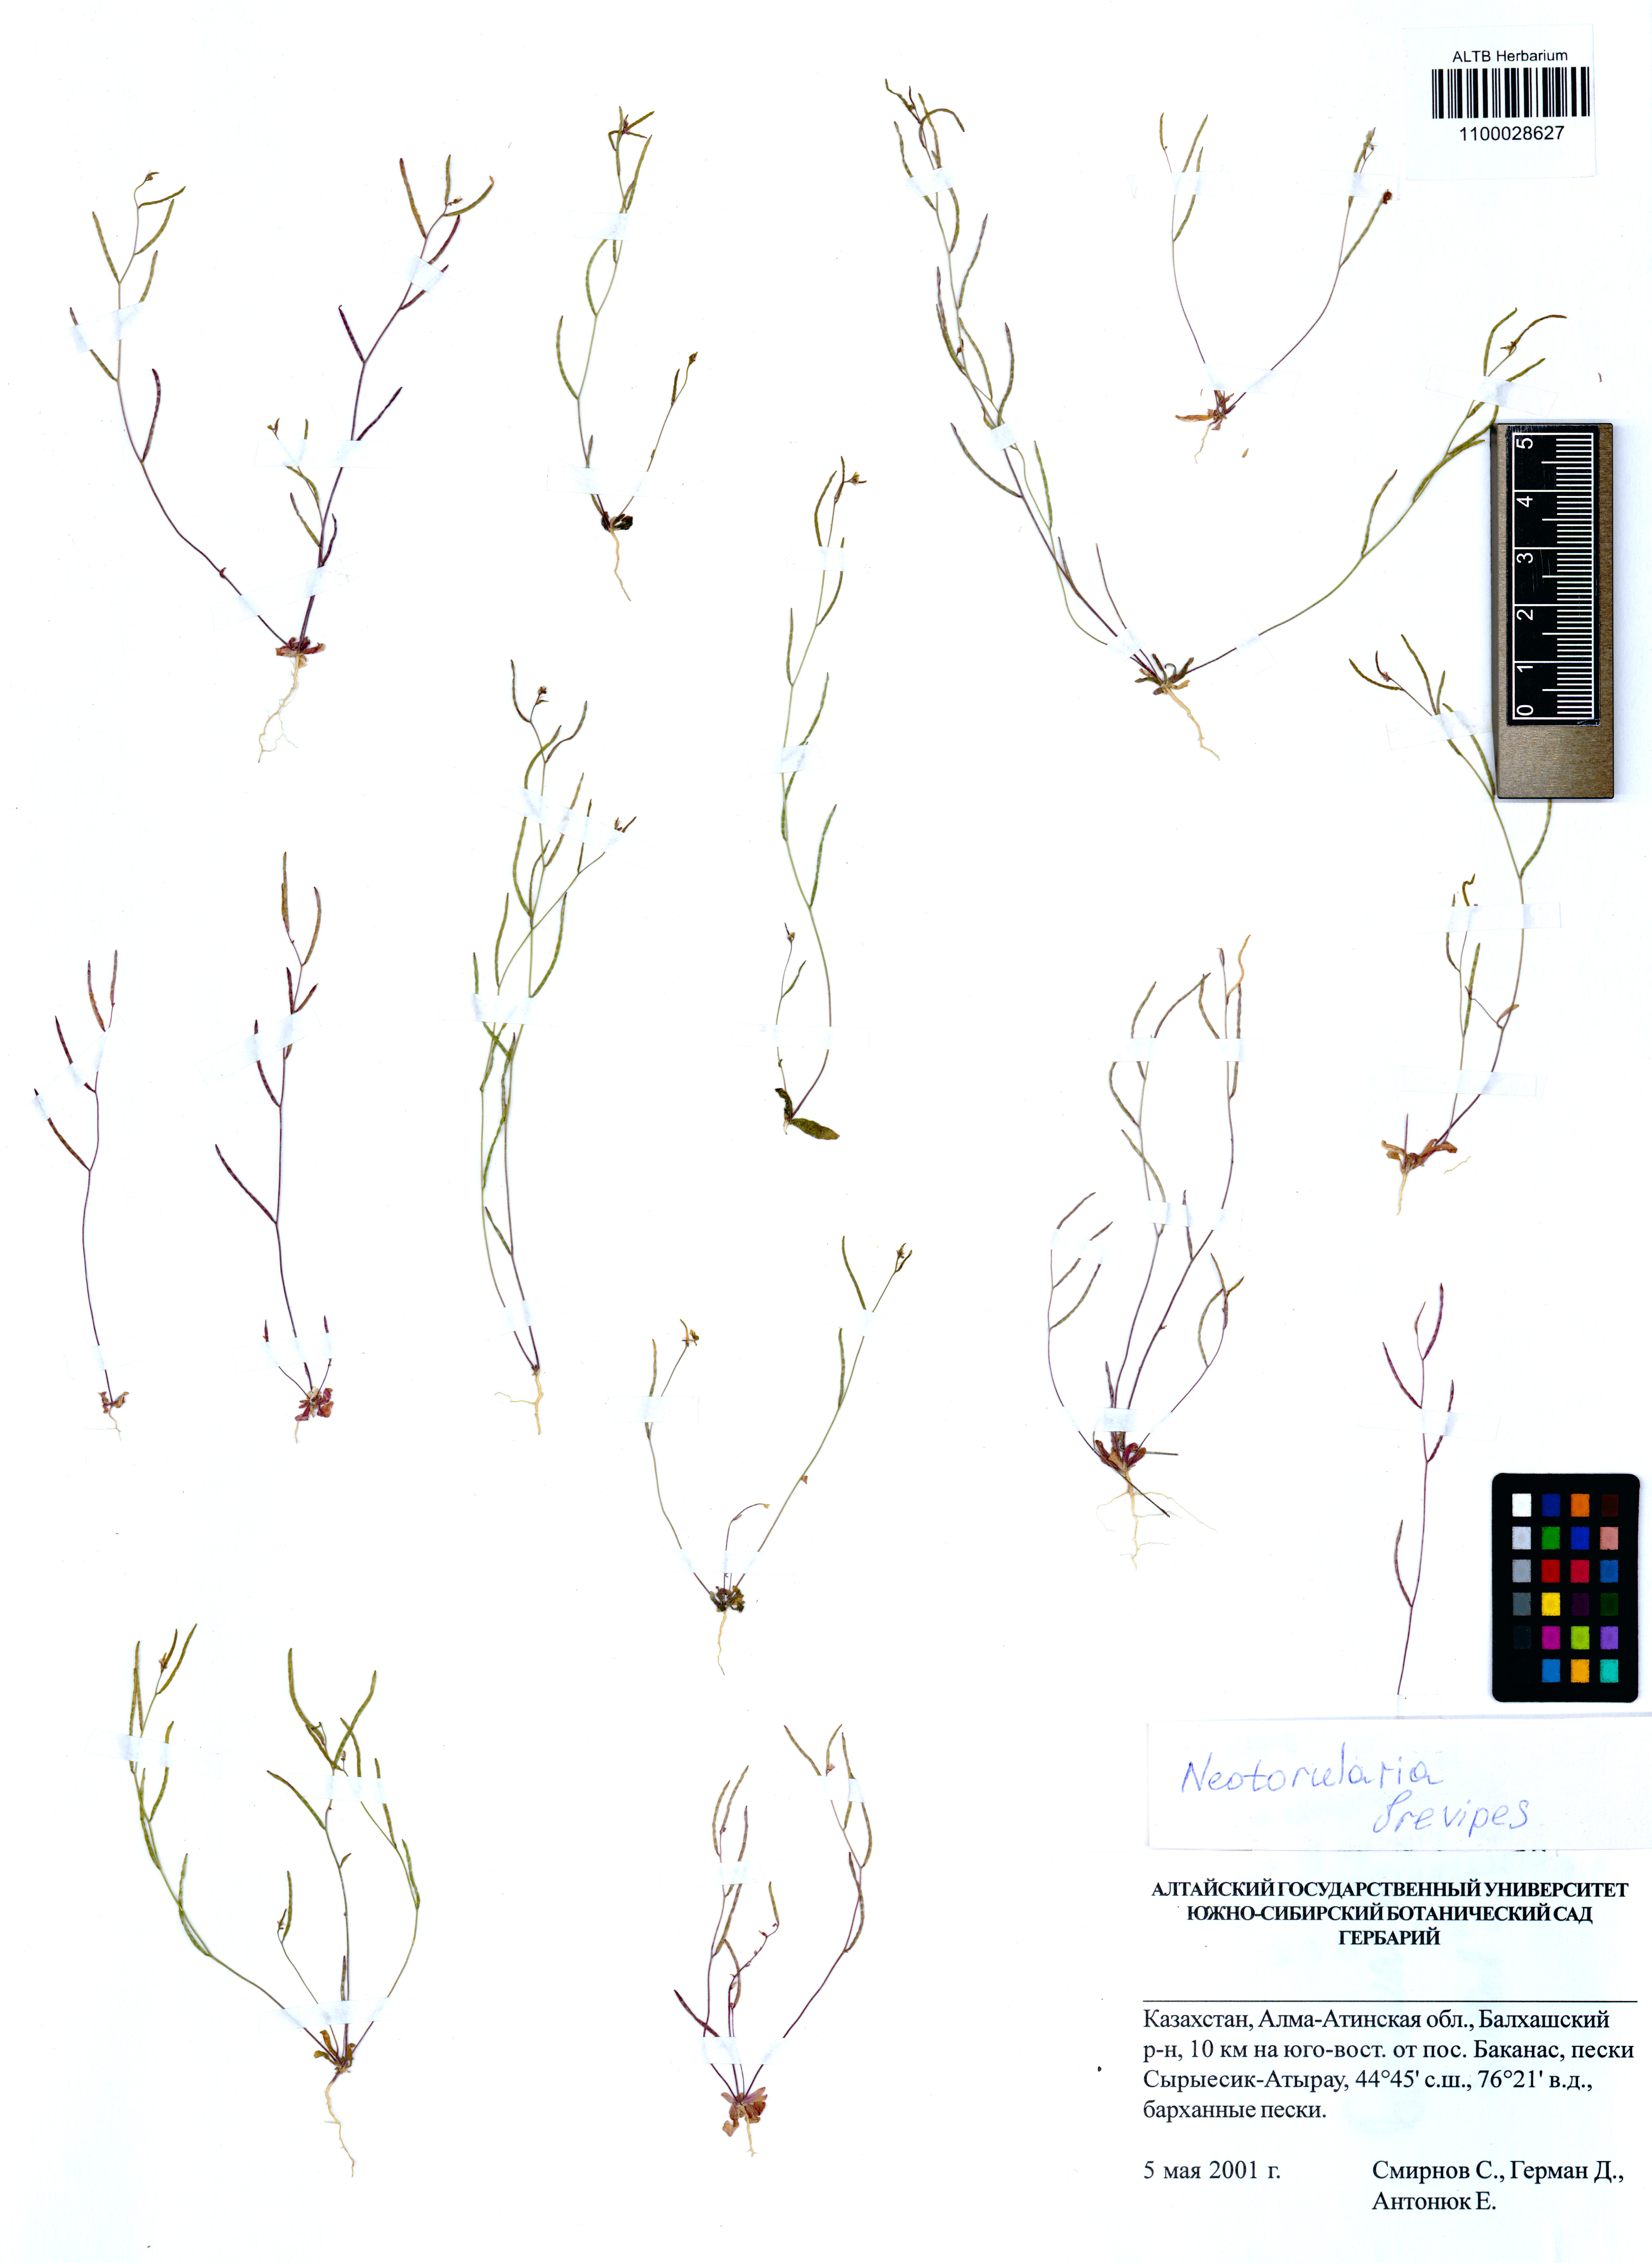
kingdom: Plantae
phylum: Tracheophyta
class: Magnoliopsida
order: Brassicales
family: Brassicaceae
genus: Neotorularia
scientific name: Neotorularia brevipes
